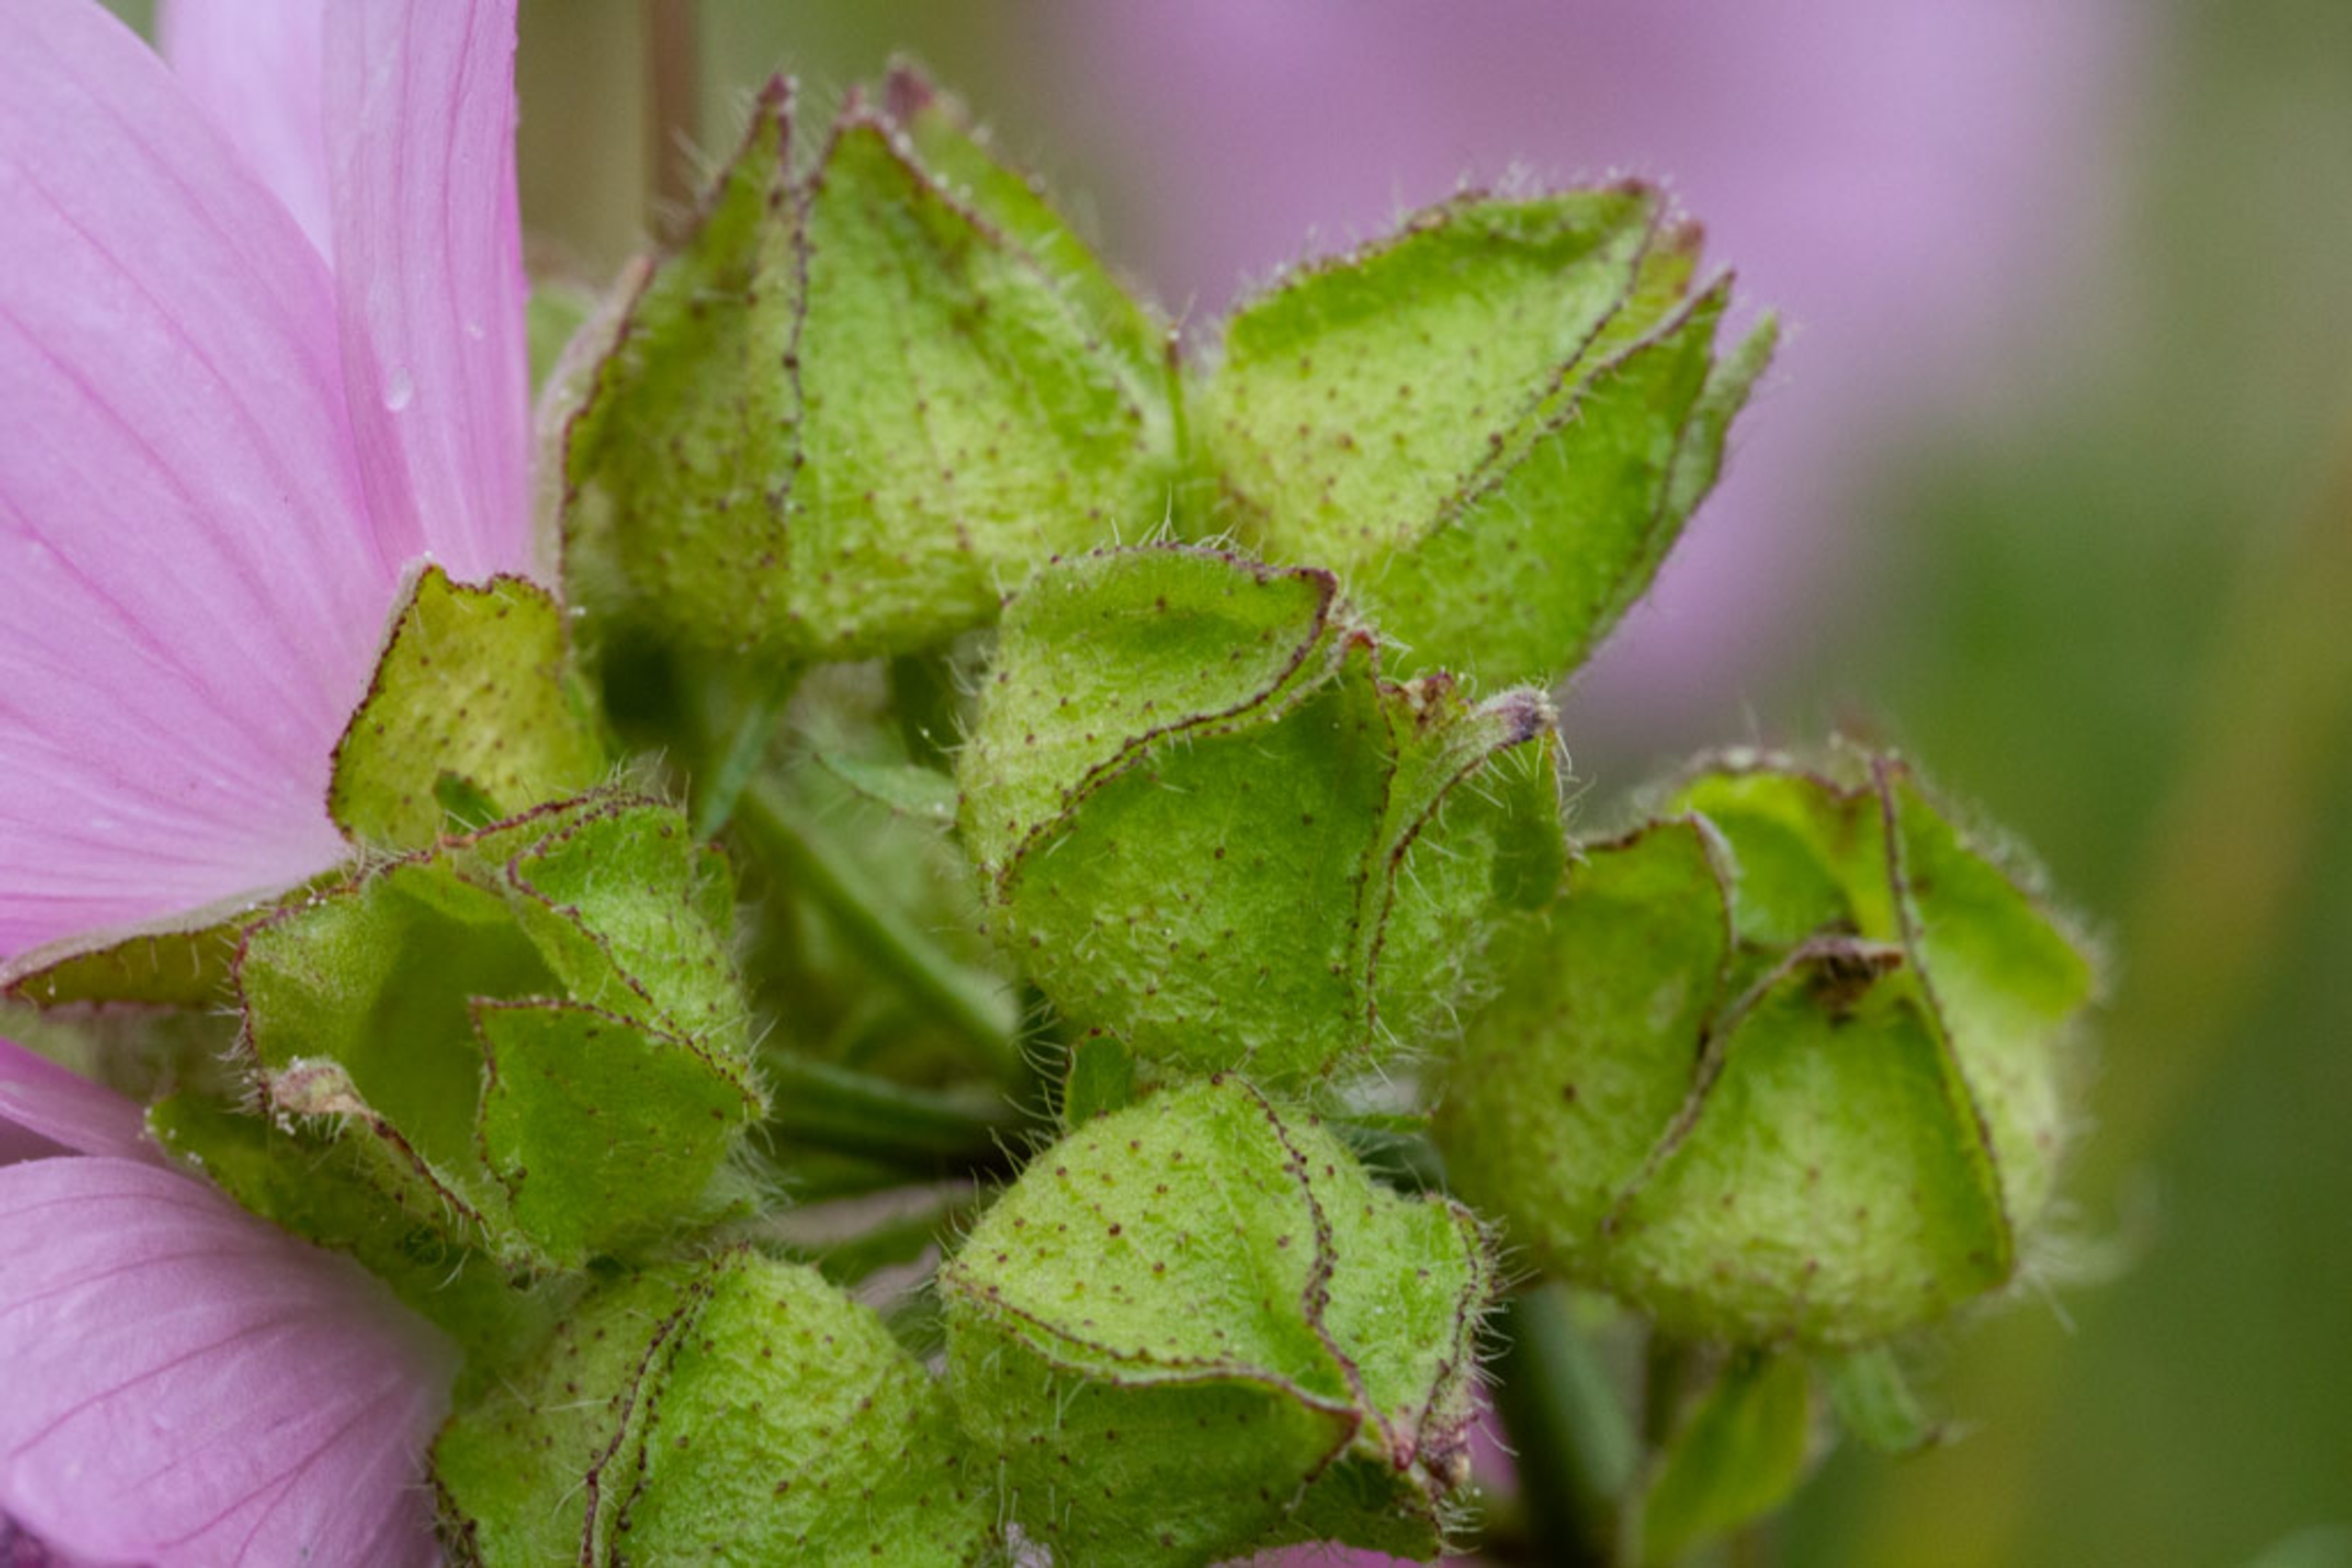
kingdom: Plantae
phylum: Tracheophyta
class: Magnoliopsida
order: Malvales
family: Malvaceae
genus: Malva
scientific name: Malva moschata
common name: Moskus-katost
